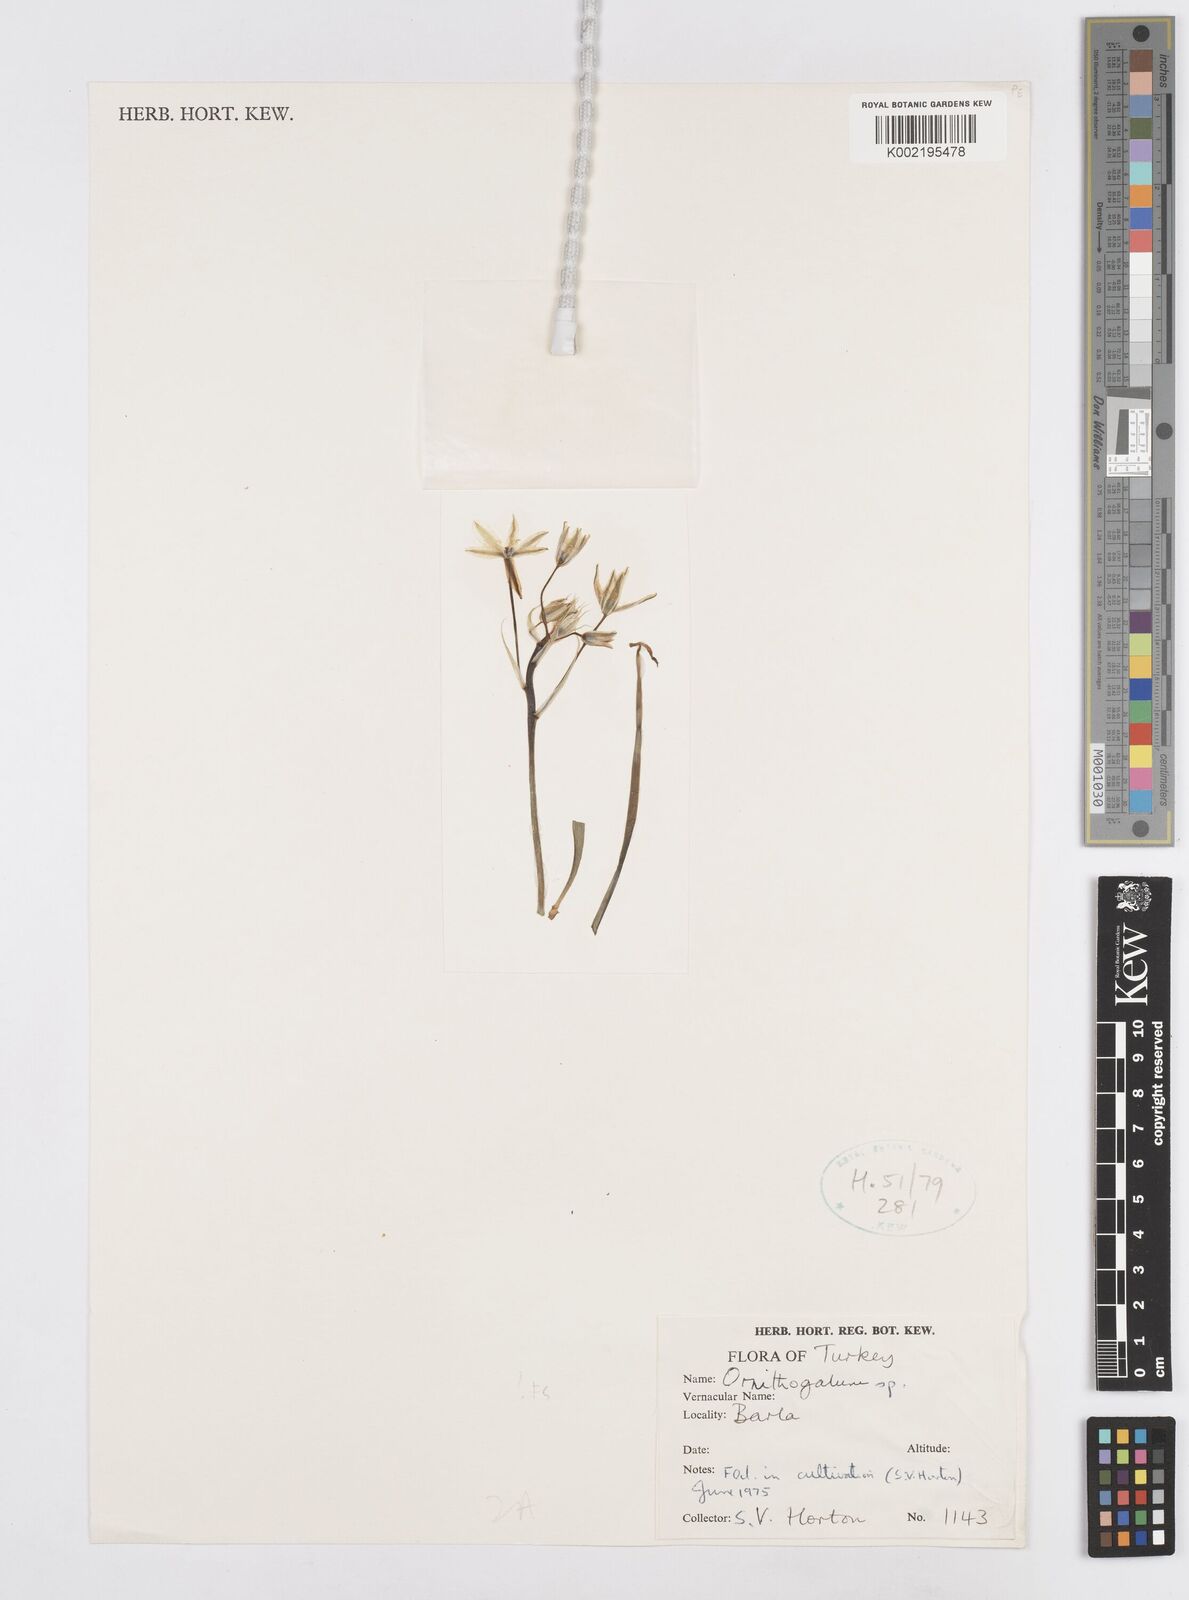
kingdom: Plantae
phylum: Tracheophyta
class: Liliopsida
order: Asparagales
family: Asparagaceae
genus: Ornithogalum
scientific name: Ornithogalum
